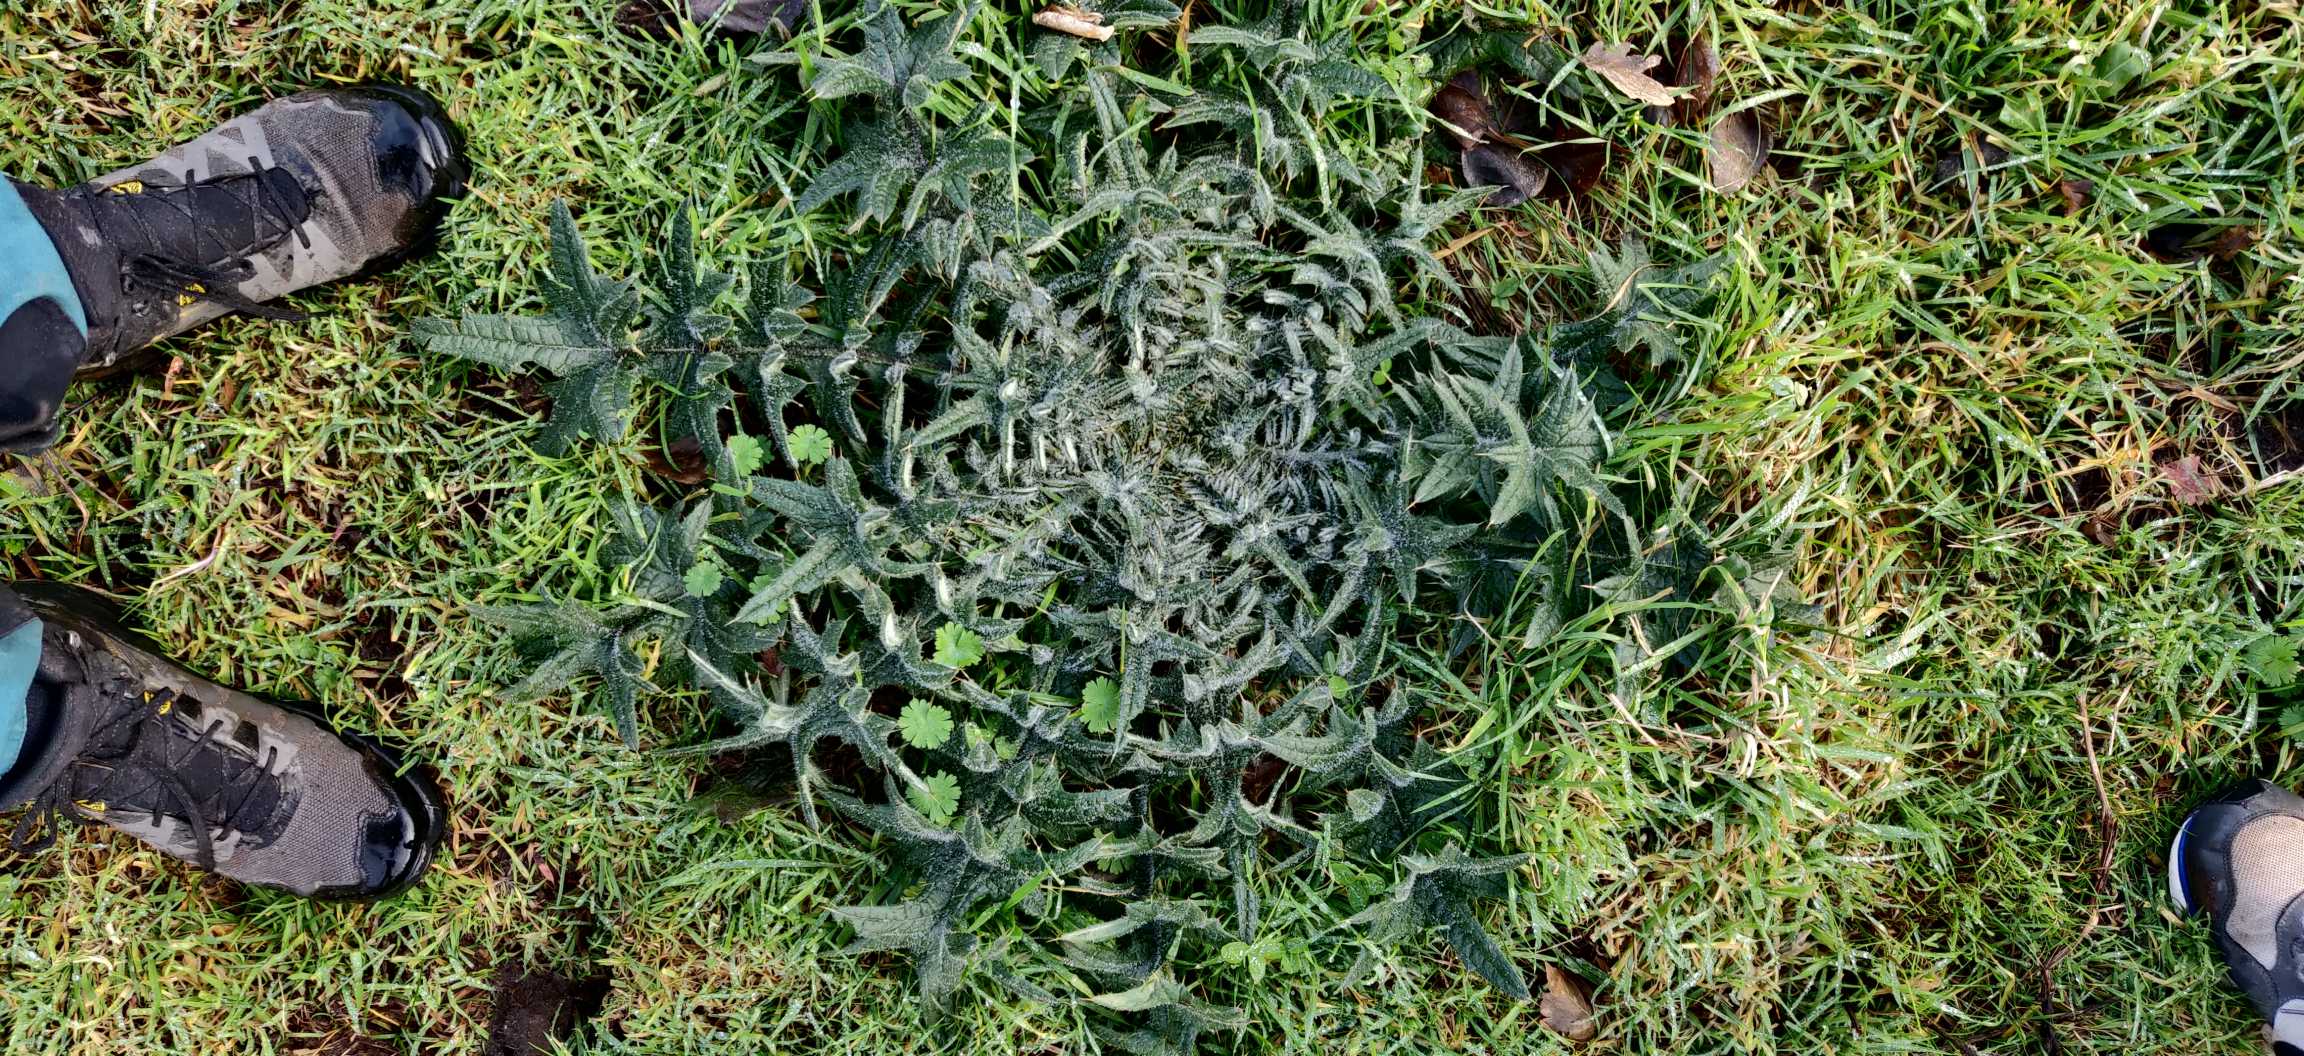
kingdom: Plantae
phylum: Tracheophyta
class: Magnoliopsida
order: Asterales
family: Asteraceae
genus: Cirsium
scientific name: Cirsium vulgare
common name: Horse-tidsel
